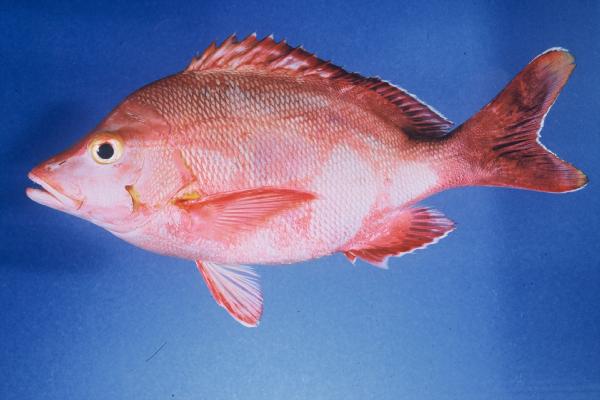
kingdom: Animalia
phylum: Chordata
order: Perciformes
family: Lutjanidae
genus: Lutjanus
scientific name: Lutjanus gibbus
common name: Humpback snapper
